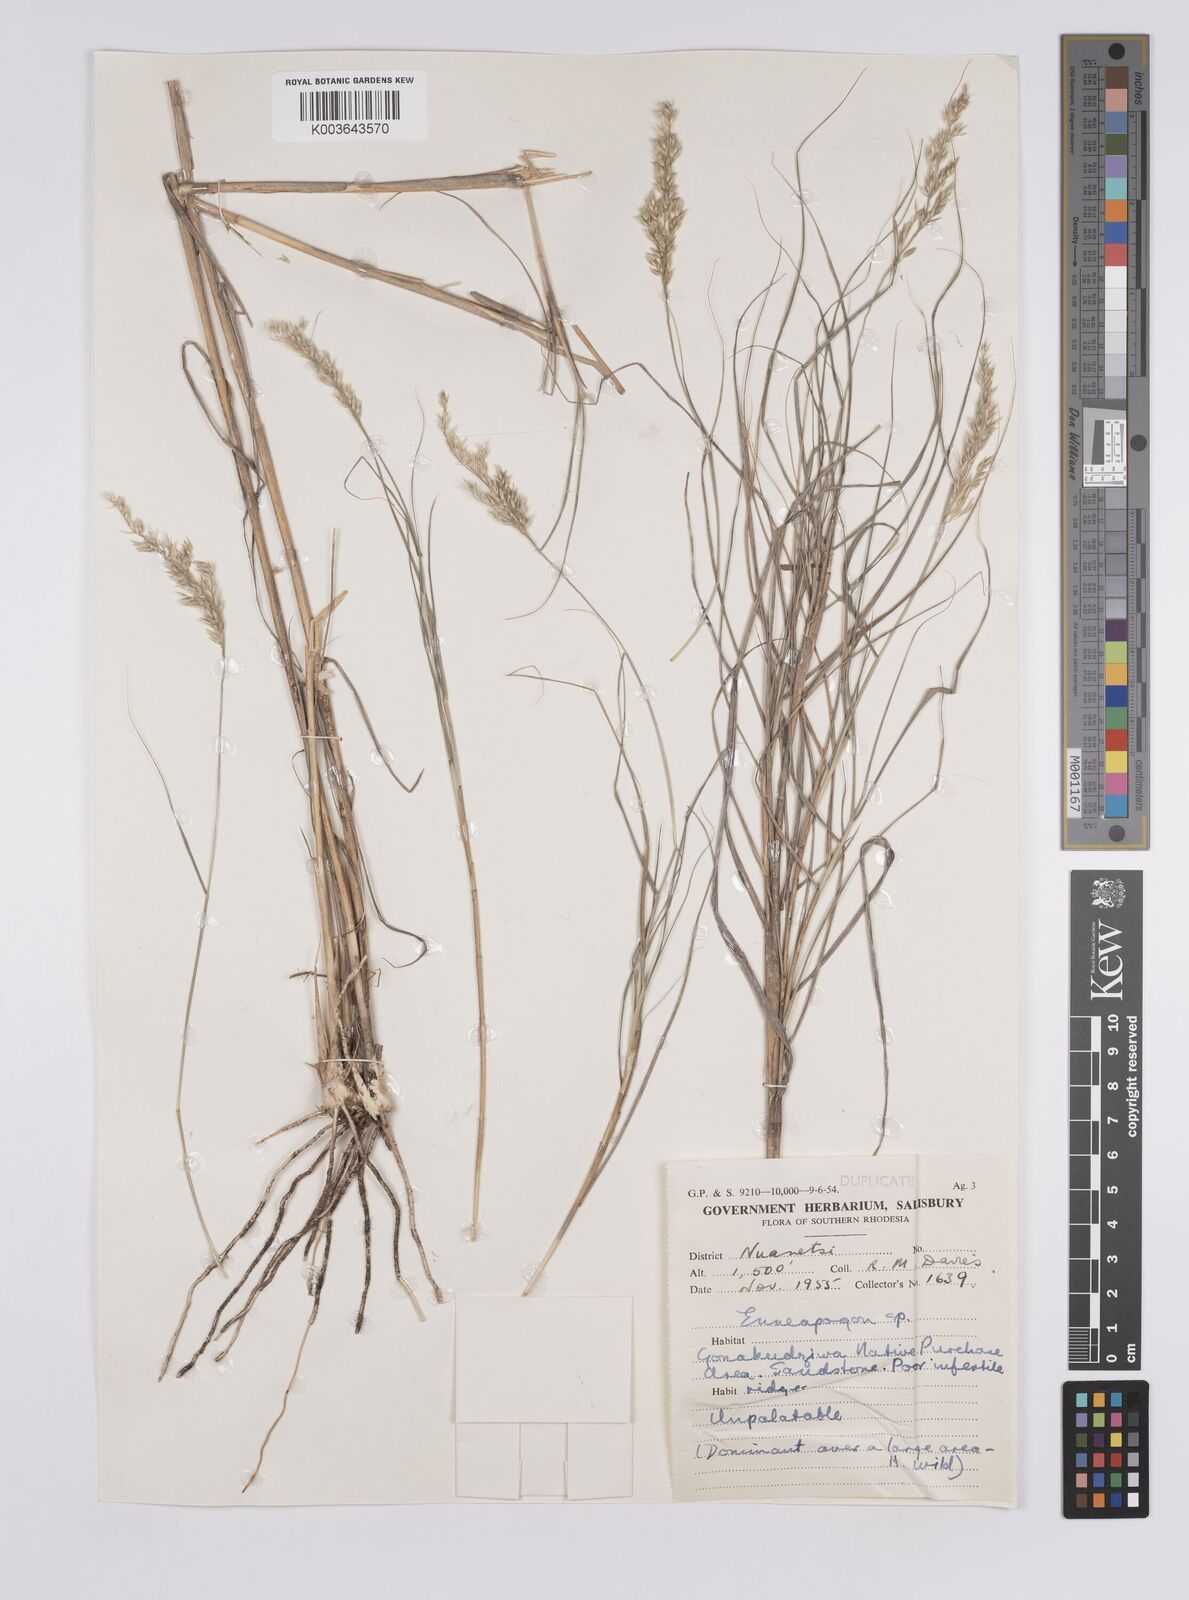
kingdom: Plantae
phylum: Tracheophyta
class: Liliopsida
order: Poales
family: Poaceae
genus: Enneapogon
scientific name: Enneapogon scoparius
